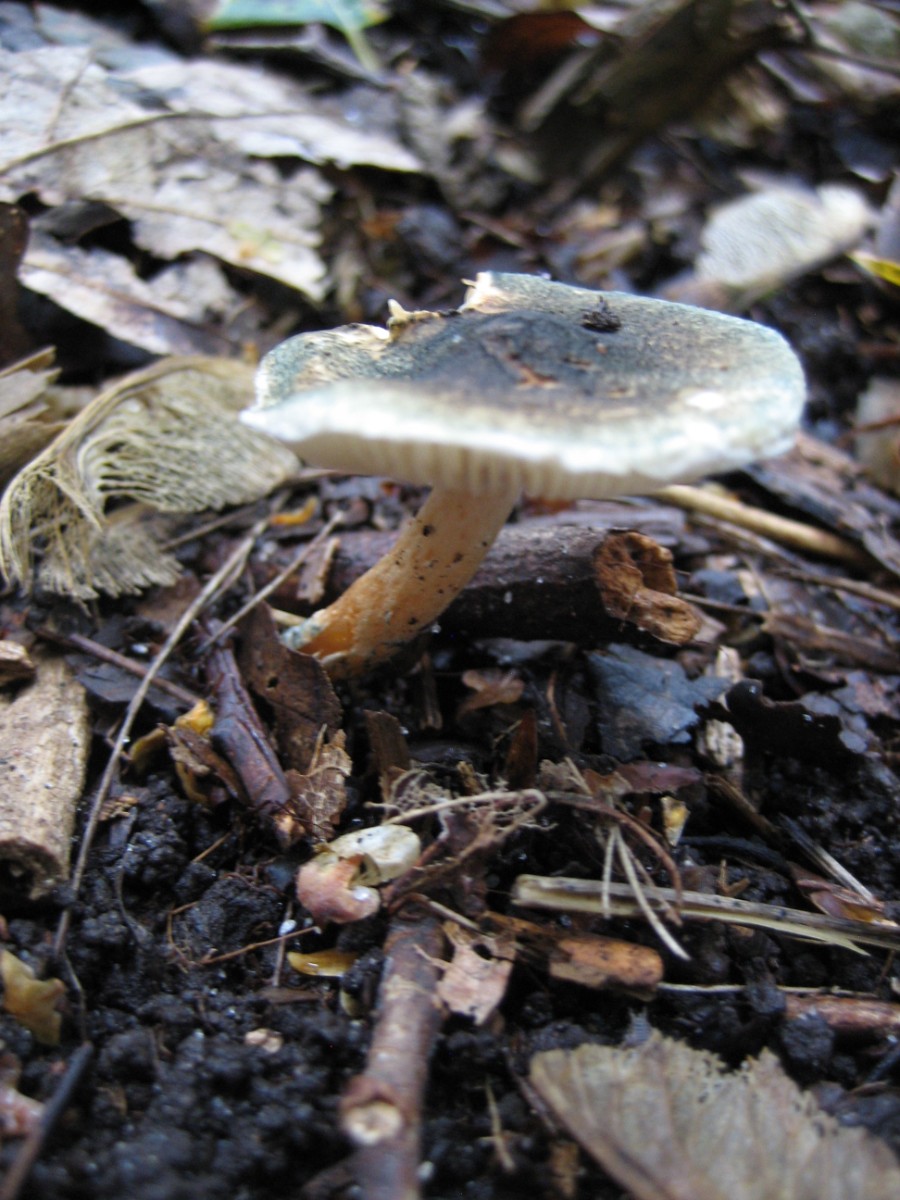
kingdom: Fungi
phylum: Basidiomycota
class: Agaricomycetes
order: Agaricales
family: Agaricaceae
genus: Lepiota
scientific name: Lepiota grangei
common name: grønskællet parasolhat
